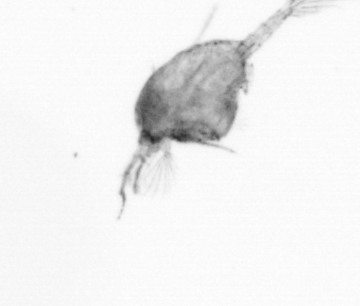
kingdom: Animalia
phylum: Arthropoda
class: Copepoda
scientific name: Copepoda
